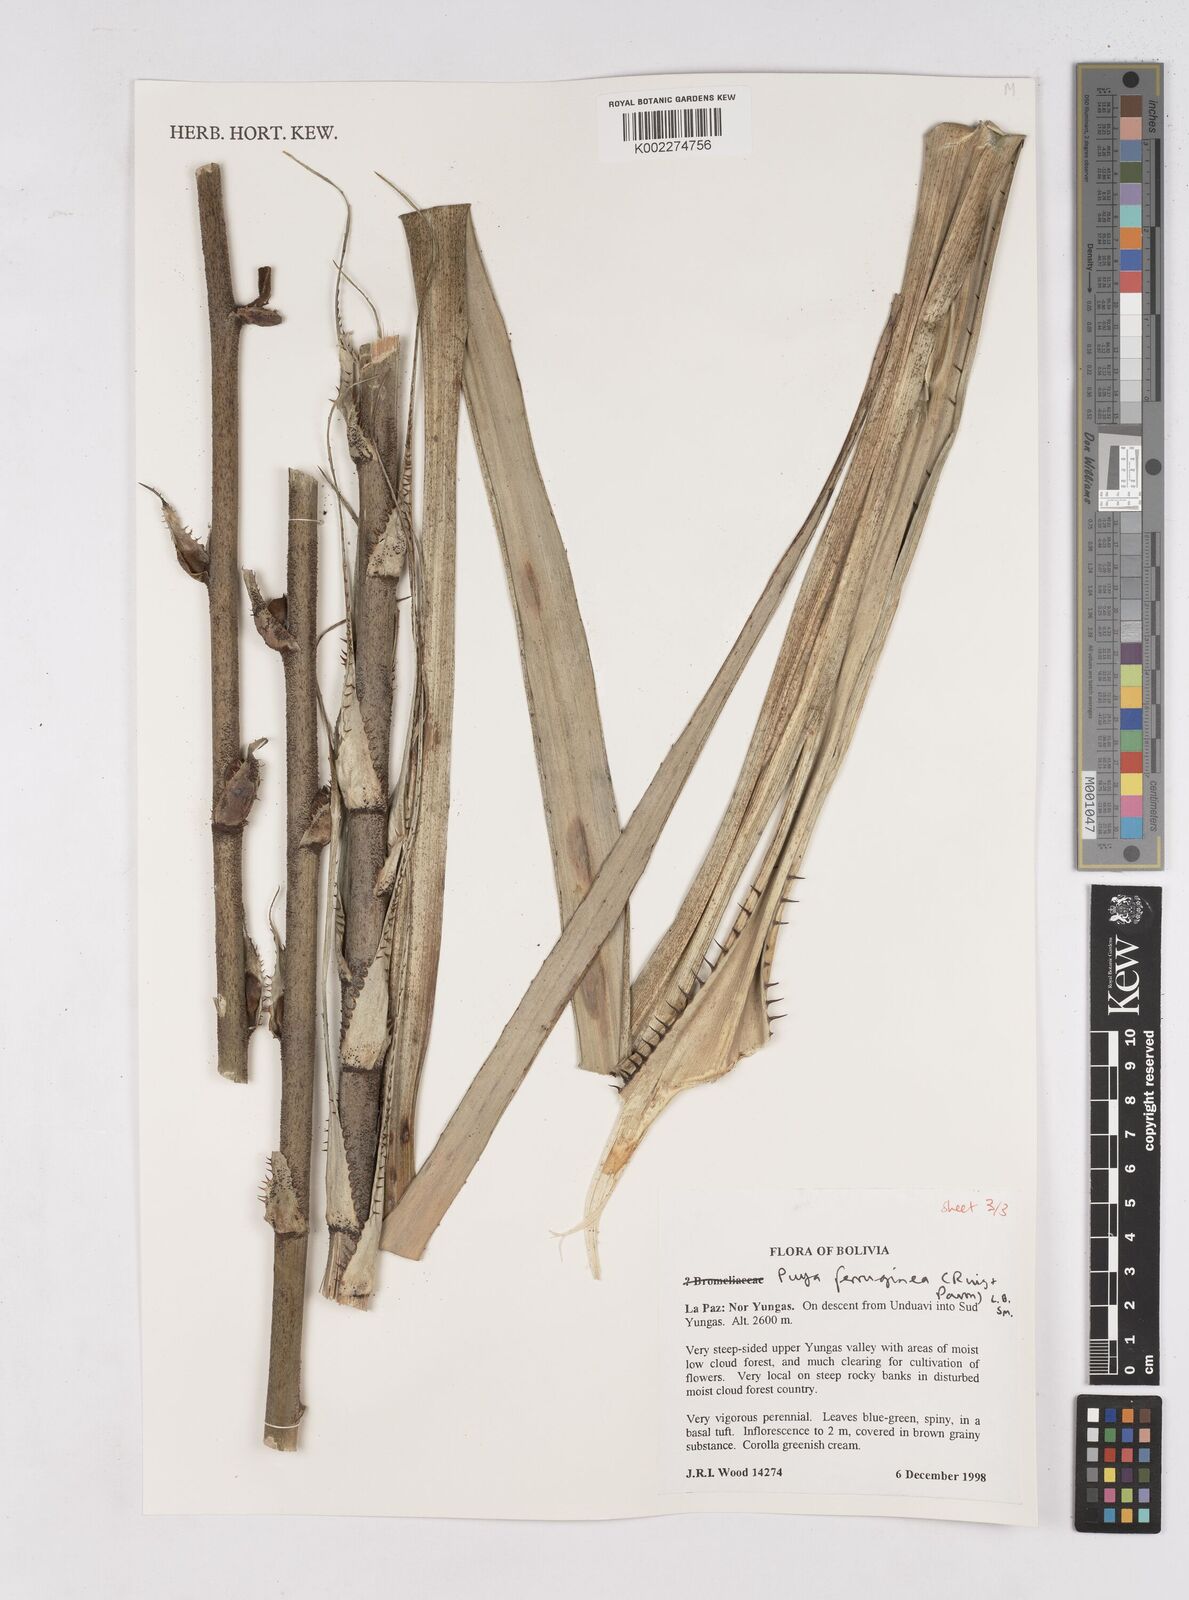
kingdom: Plantae
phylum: Tracheophyta
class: Liliopsida
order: Poales
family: Bromeliaceae
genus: Puya
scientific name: Puya ferruginea
